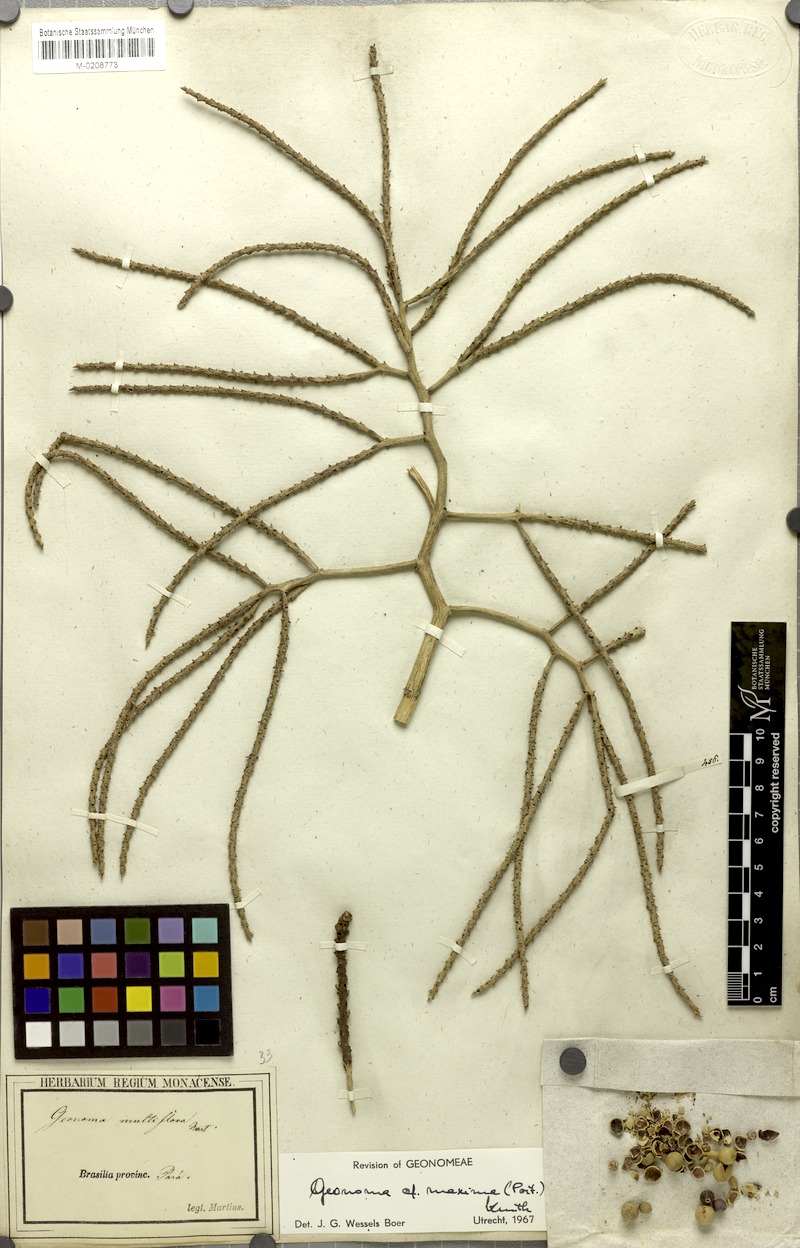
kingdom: Plantae
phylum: Tracheophyta
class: Liliopsida
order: Arecales
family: Arecaceae
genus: Geonoma
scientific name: Geonoma maxima
